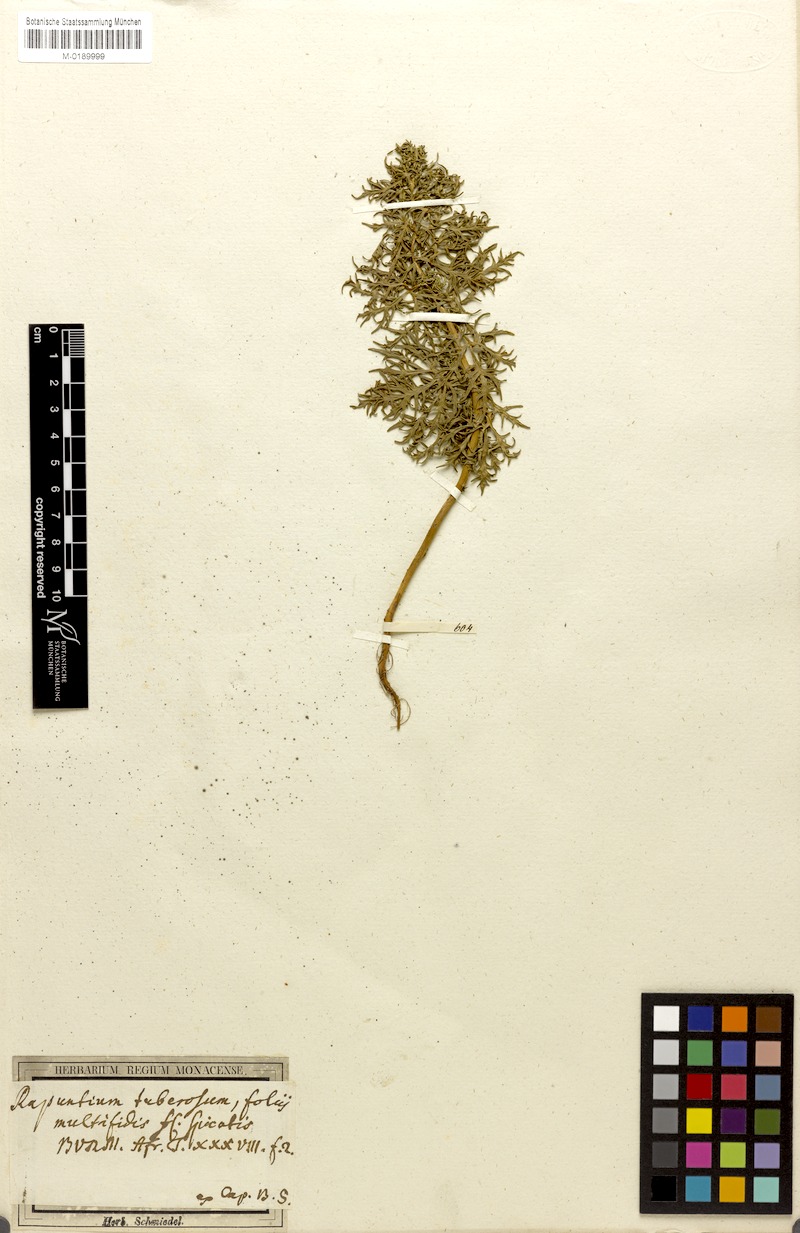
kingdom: Plantae
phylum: Tracheophyta
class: Magnoliopsida
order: Asterales
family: Campanulaceae
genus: Cyphia
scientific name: Cyphia bulbosa
